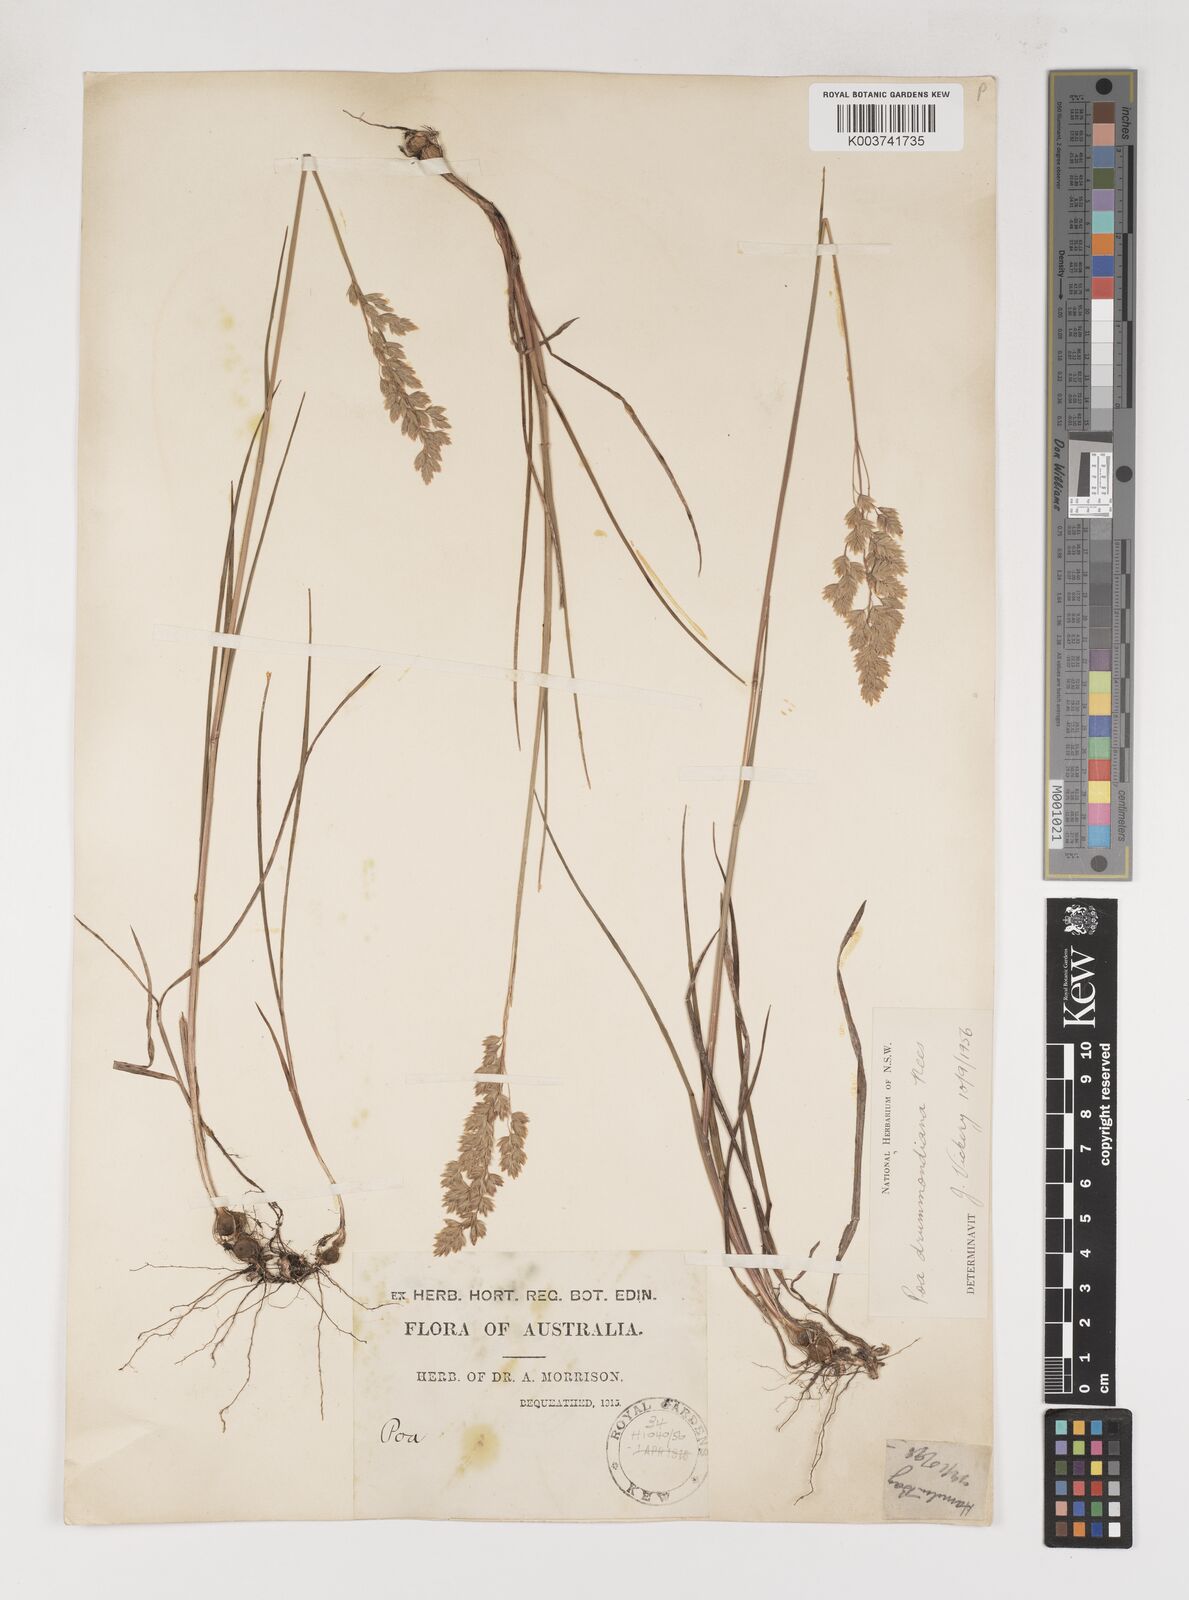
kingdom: Plantae
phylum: Tracheophyta
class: Liliopsida
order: Poales
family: Poaceae
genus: Poa
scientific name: Poa drummondiana
